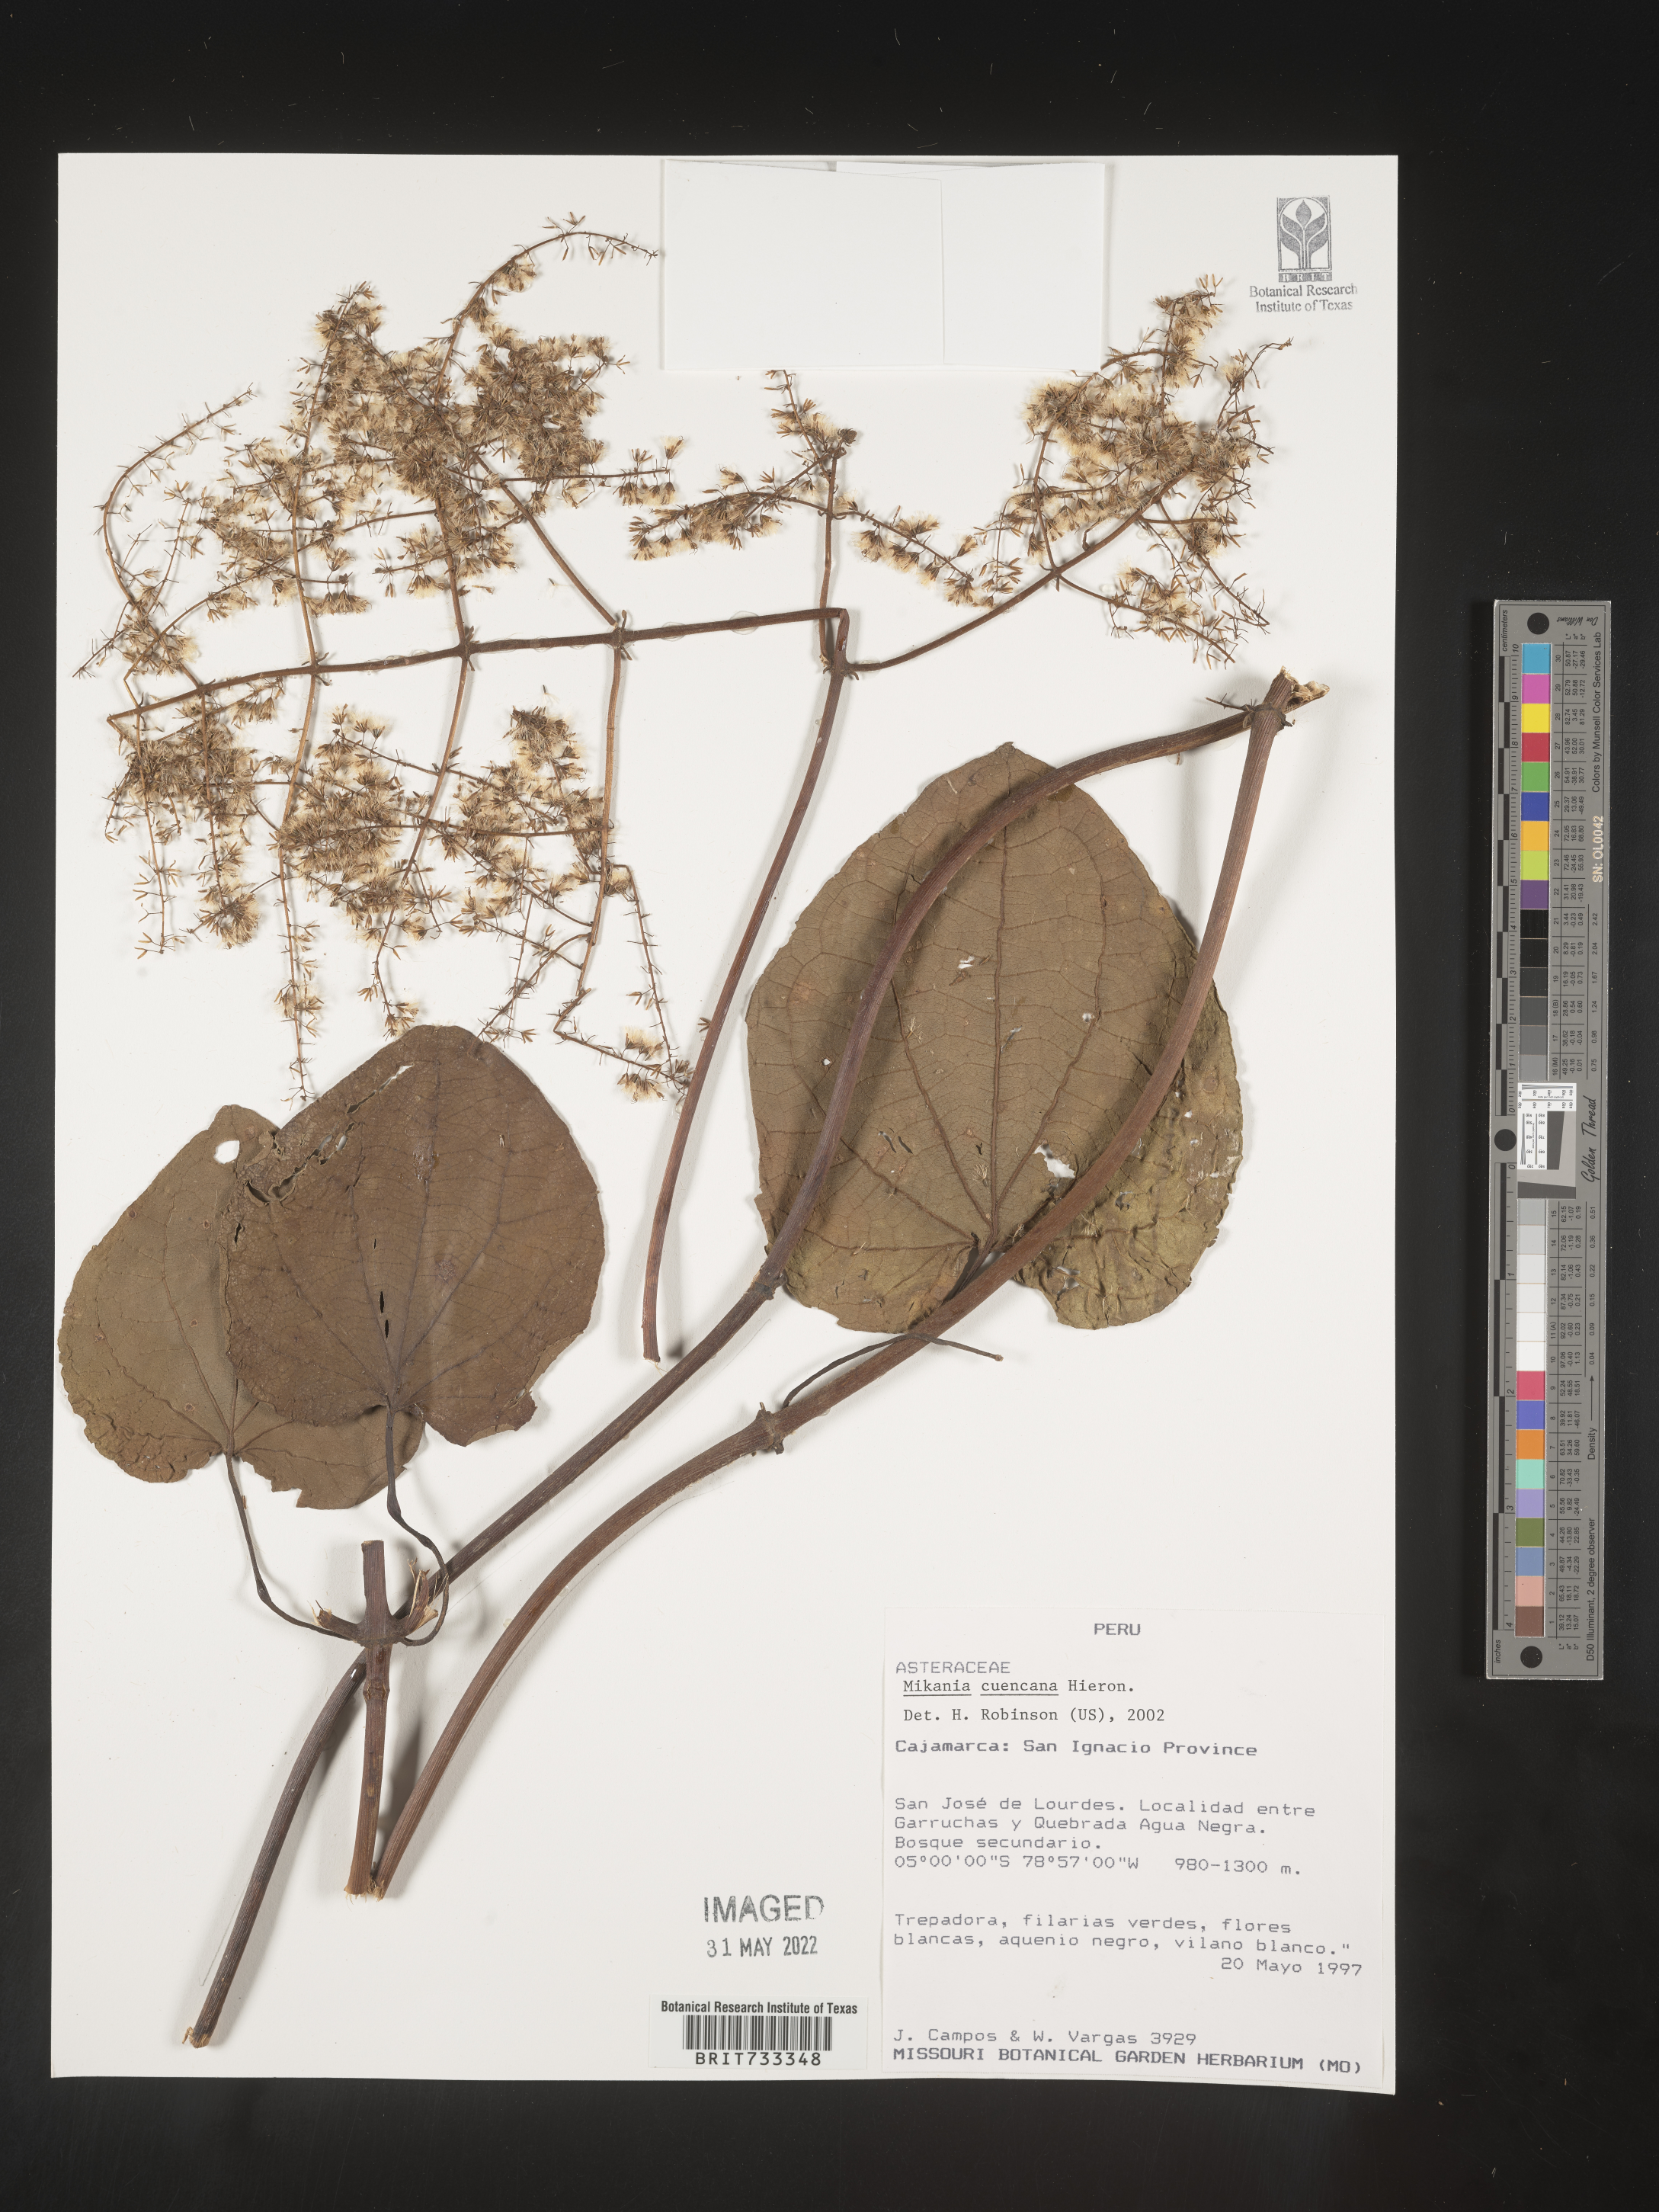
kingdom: Plantae
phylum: Tracheophyta
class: Magnoliopsida
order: Asterales
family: Asteraceae
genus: Mikania
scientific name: Mikania
